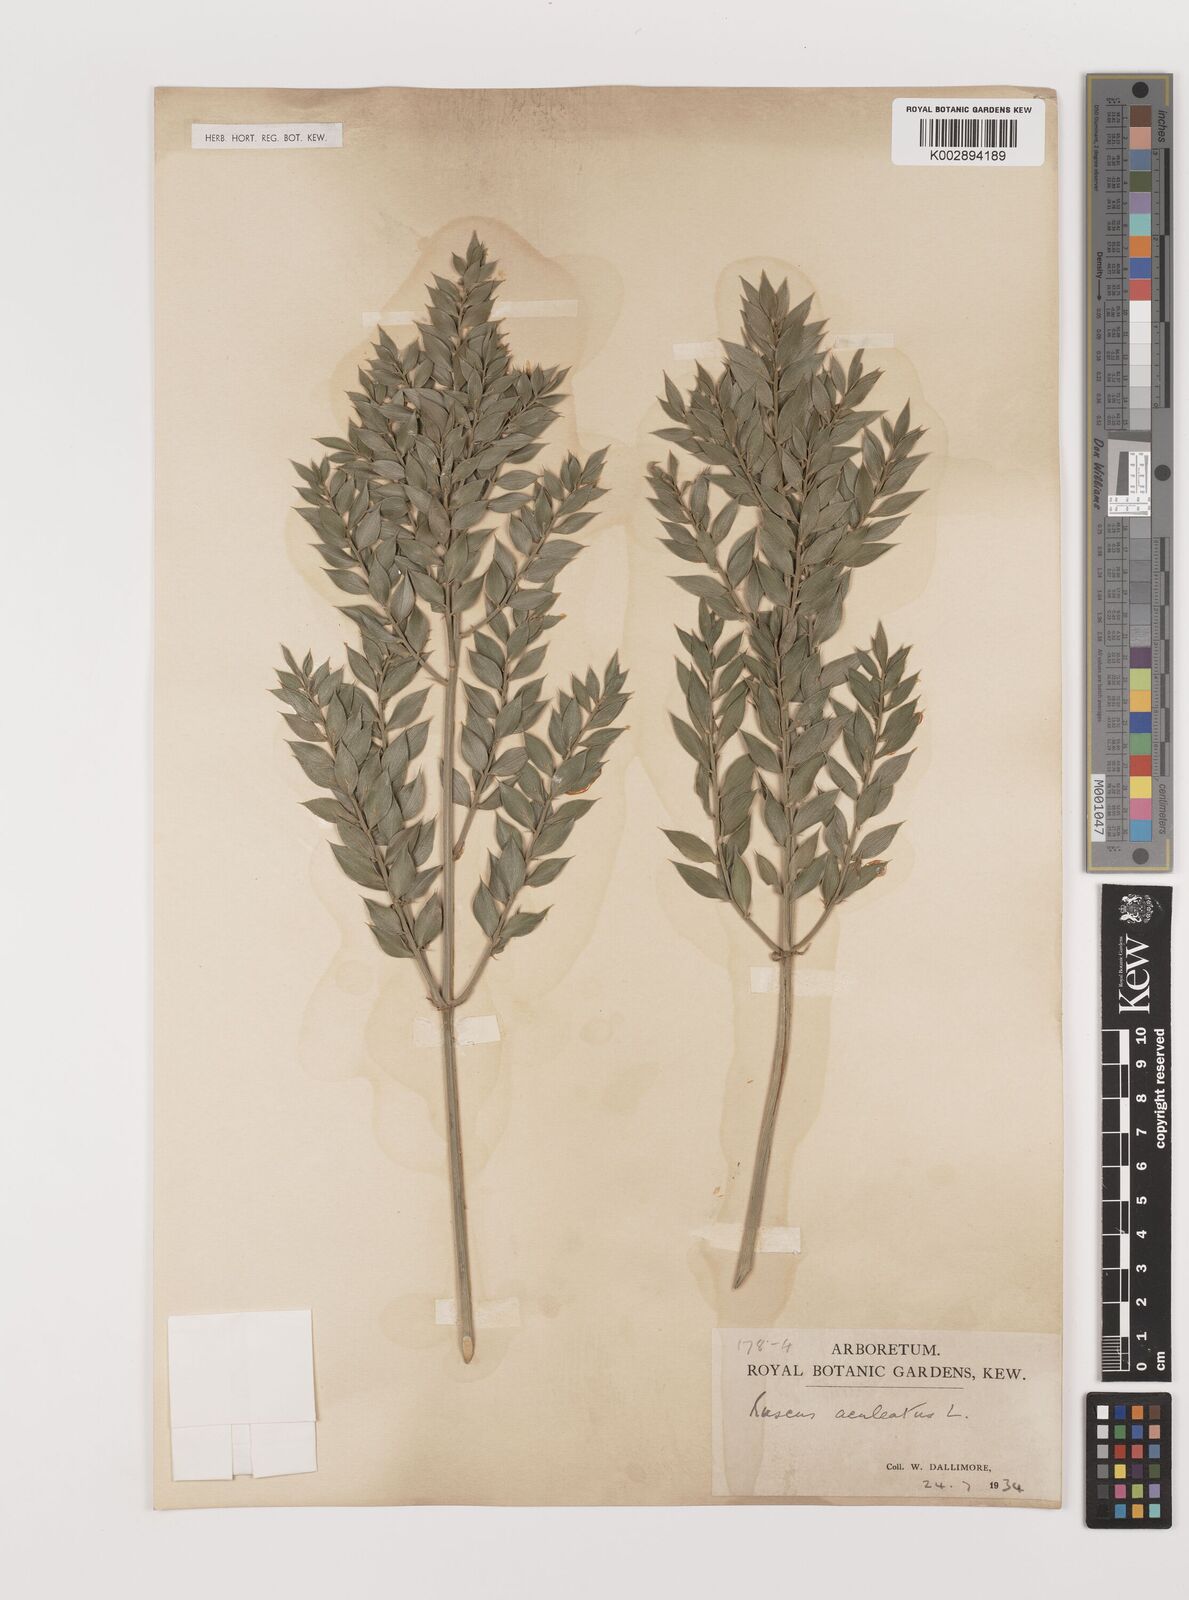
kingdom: Plantae
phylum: Tracheophyta
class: Liliopsida
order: Asparagales
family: Asparagaceae
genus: Ruscus
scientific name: Ruscus aculeatus
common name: Butcher's-broom
